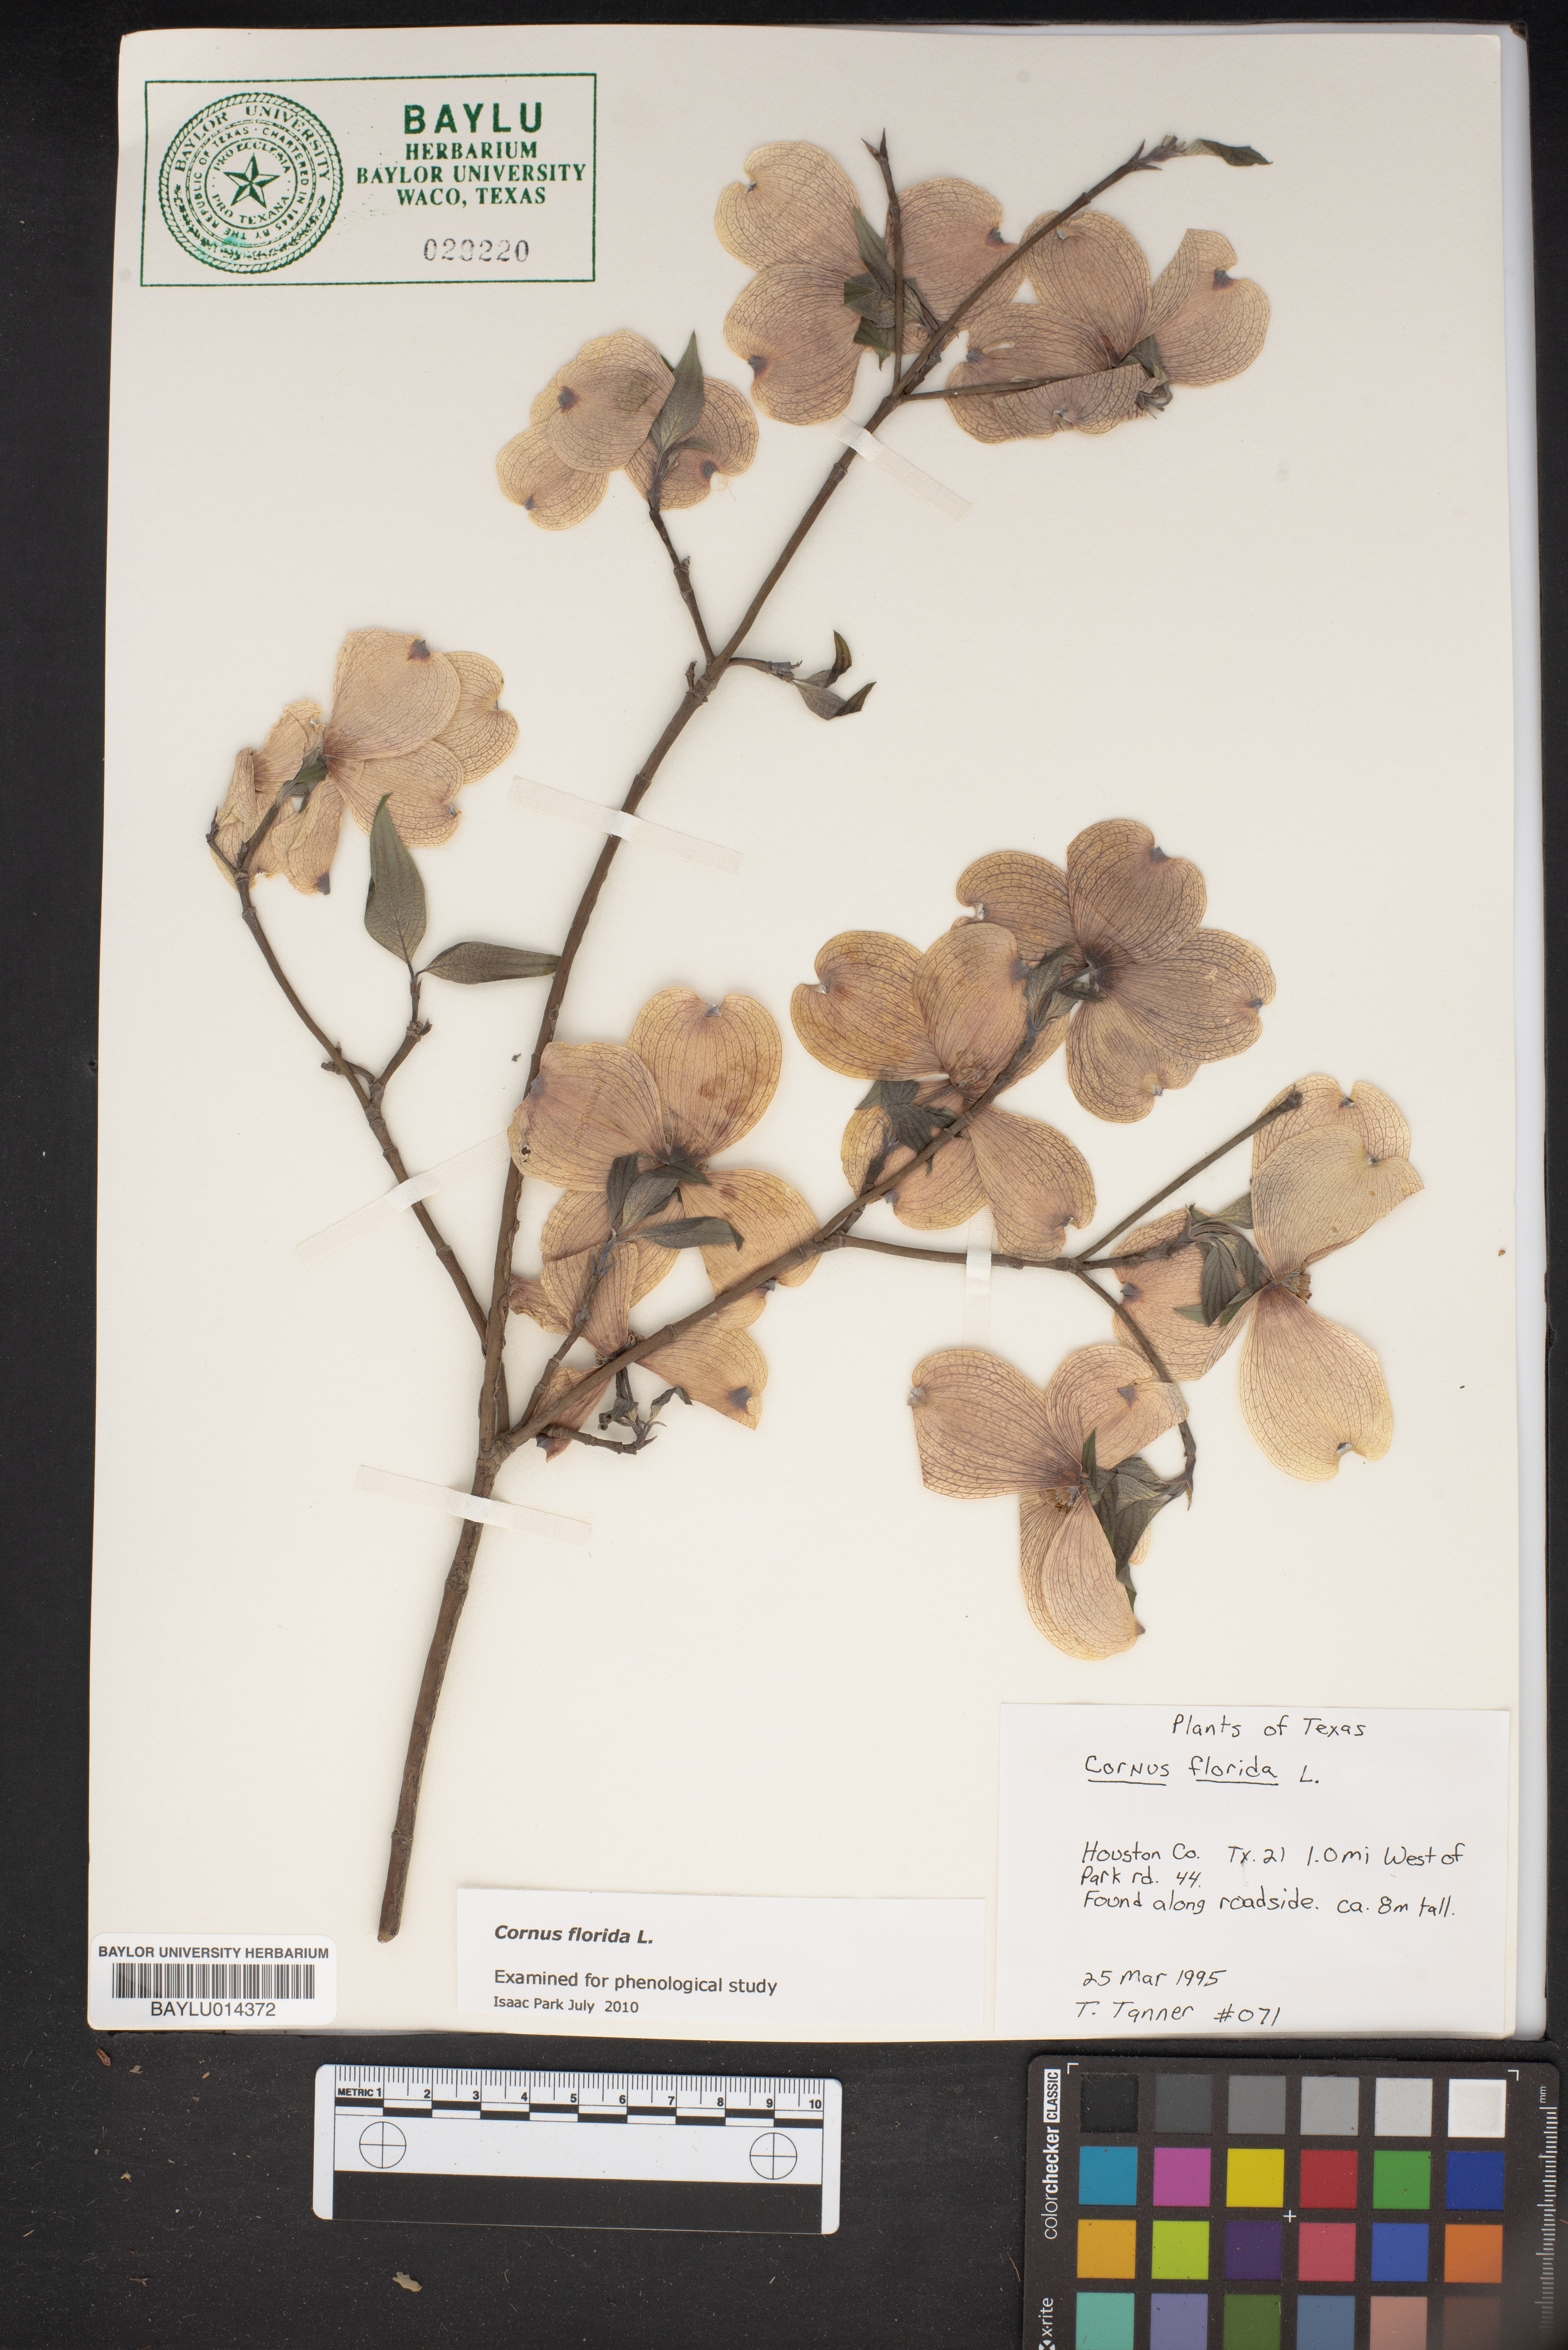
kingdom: Plantae
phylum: Tracheophyta
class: Magnoliopsida
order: Cornales
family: Cornaceae
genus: Cornus
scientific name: Cornus florida
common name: Flowering dogwood
